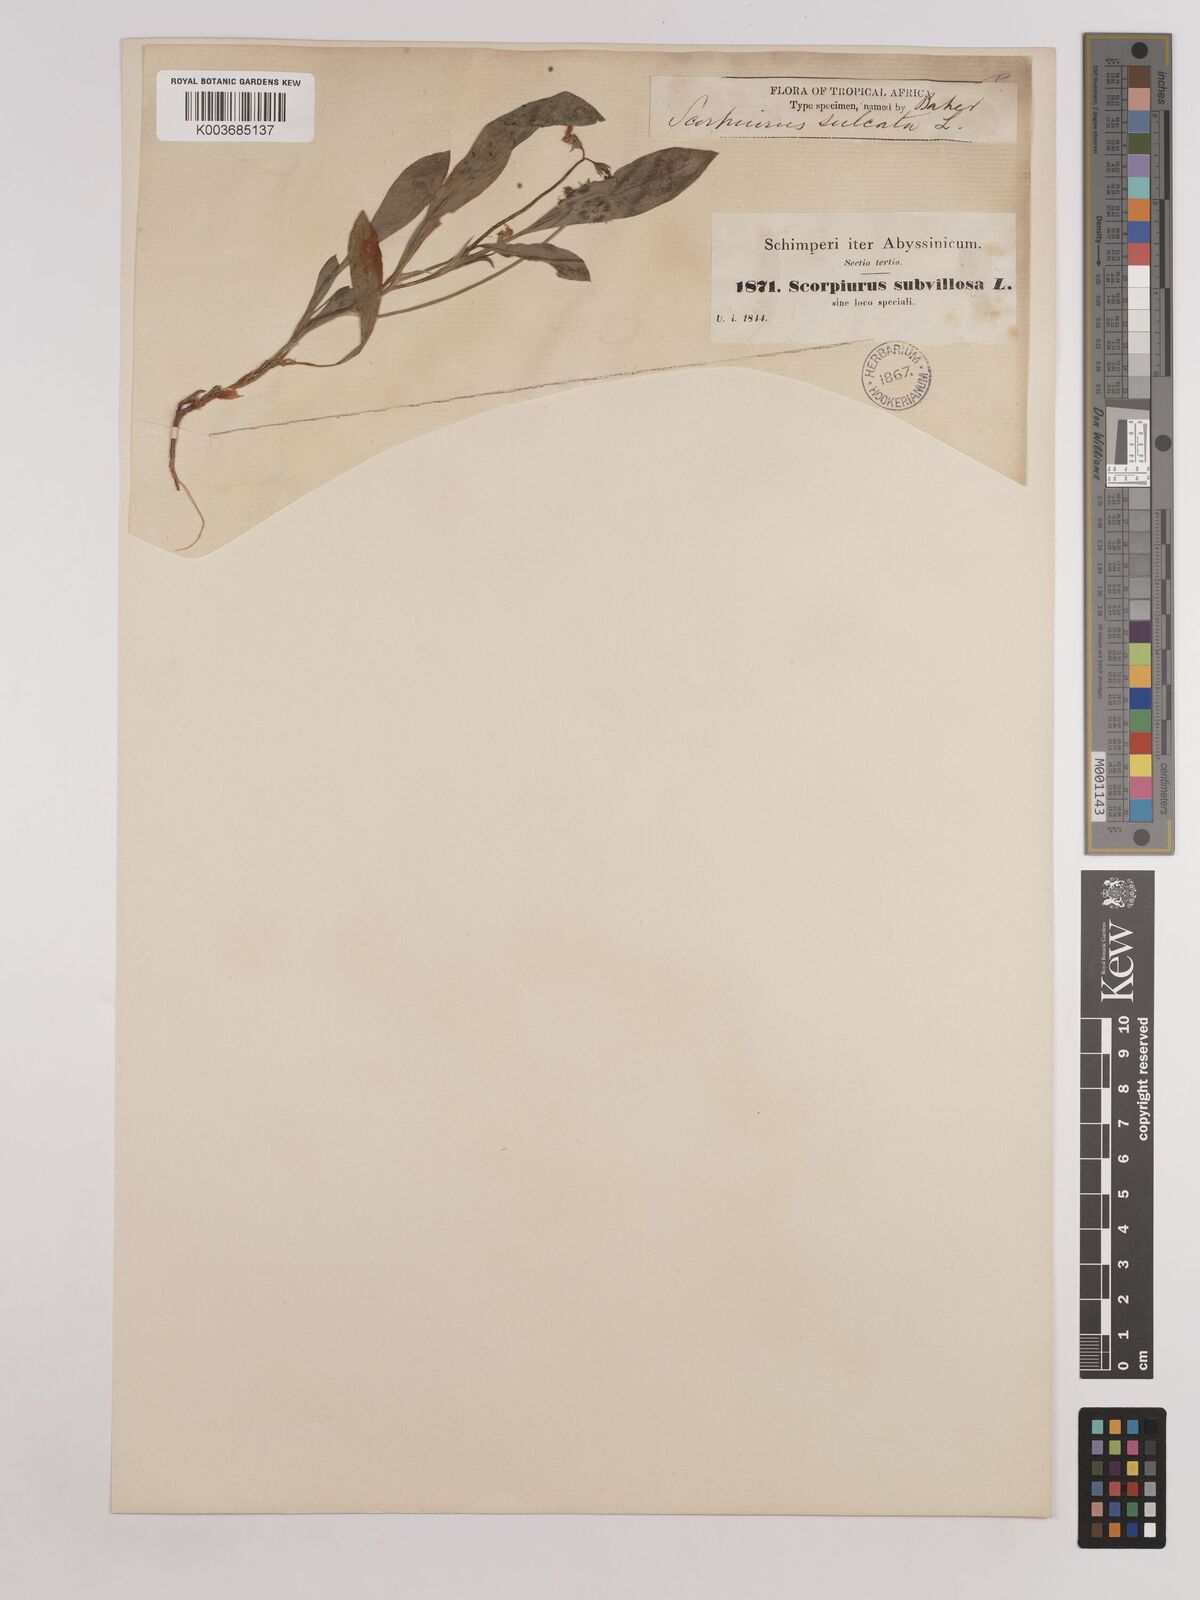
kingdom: Plantae
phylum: Tracheophyta
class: Magnoliopsida
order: Fabales
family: Fabaceae
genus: Scorpiurus
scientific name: Scorpiurus muricatus
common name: Caterpillar-plant
